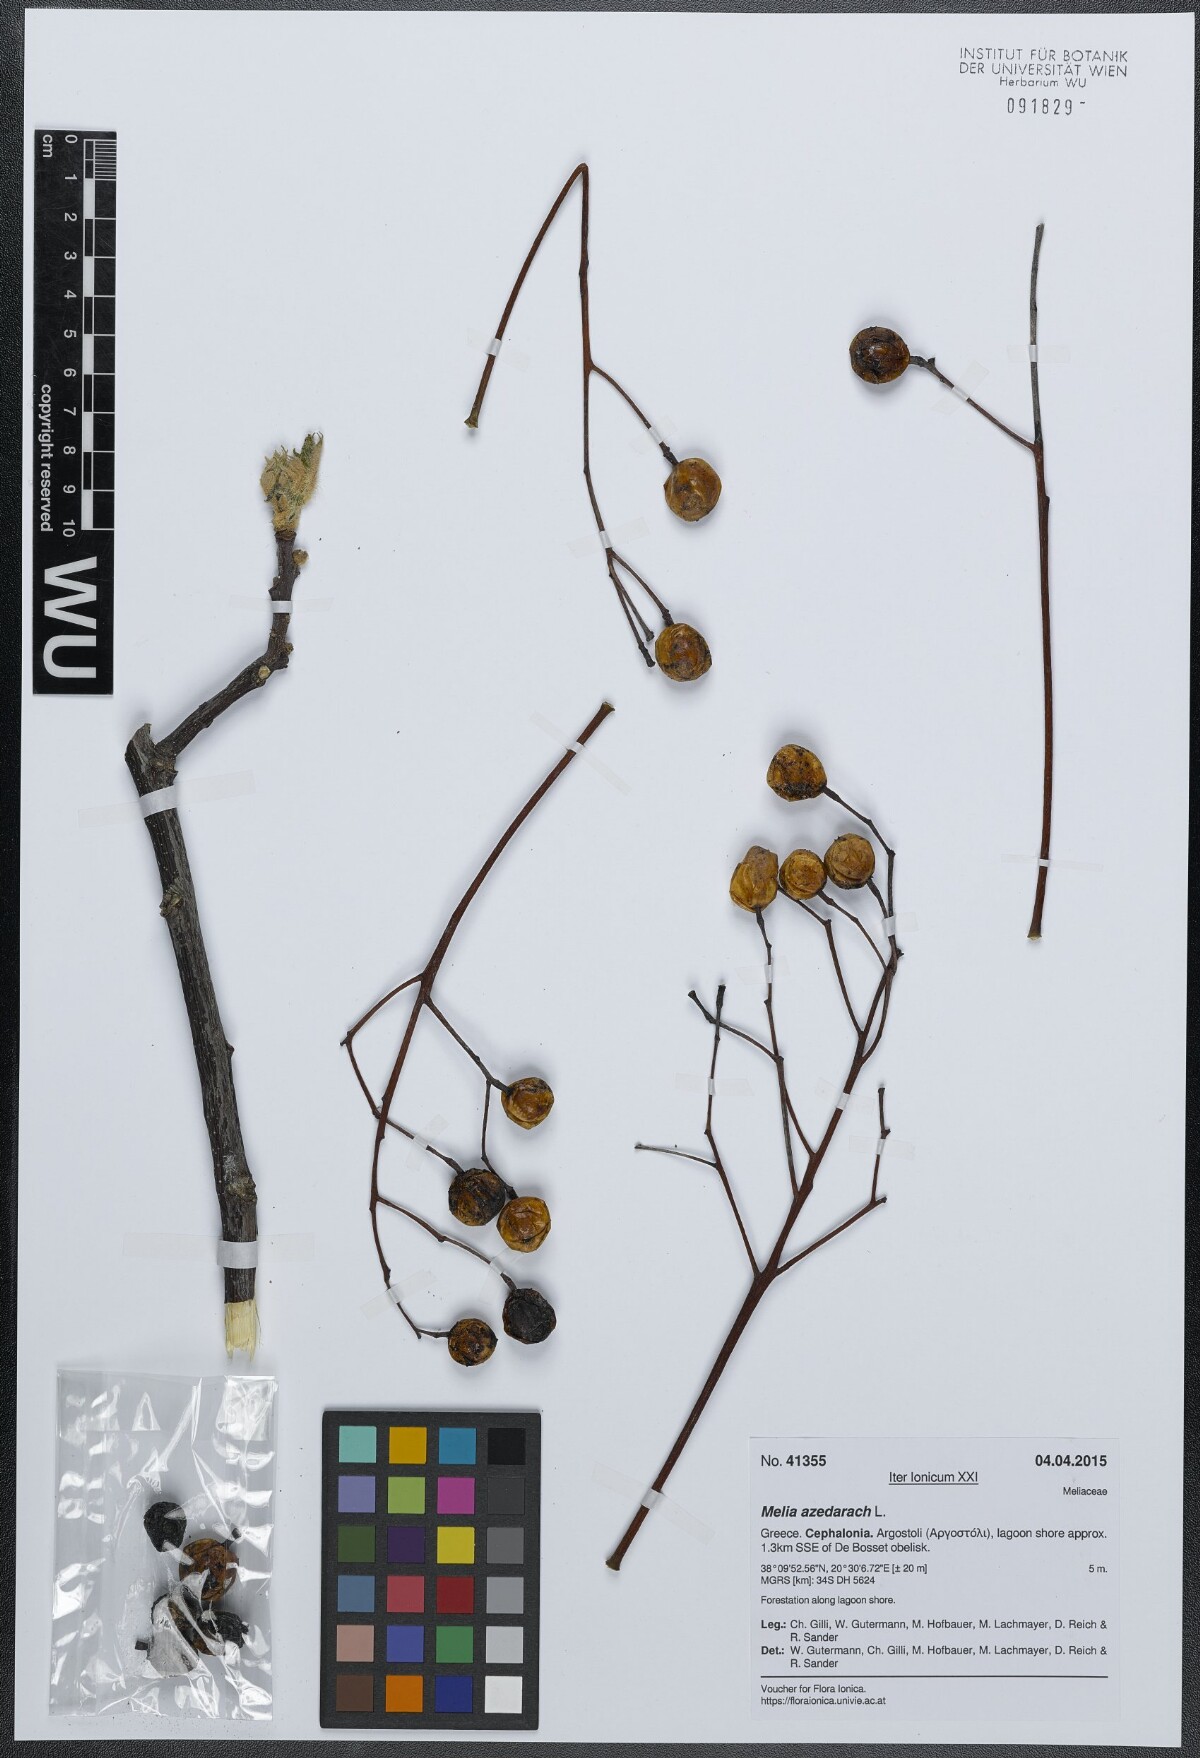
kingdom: Plantae
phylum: Tracheophyta
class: Magnoliopsida
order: Sapindales
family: Meliaceae
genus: Melia
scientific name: Melia azedarach
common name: Chinaberrytree
